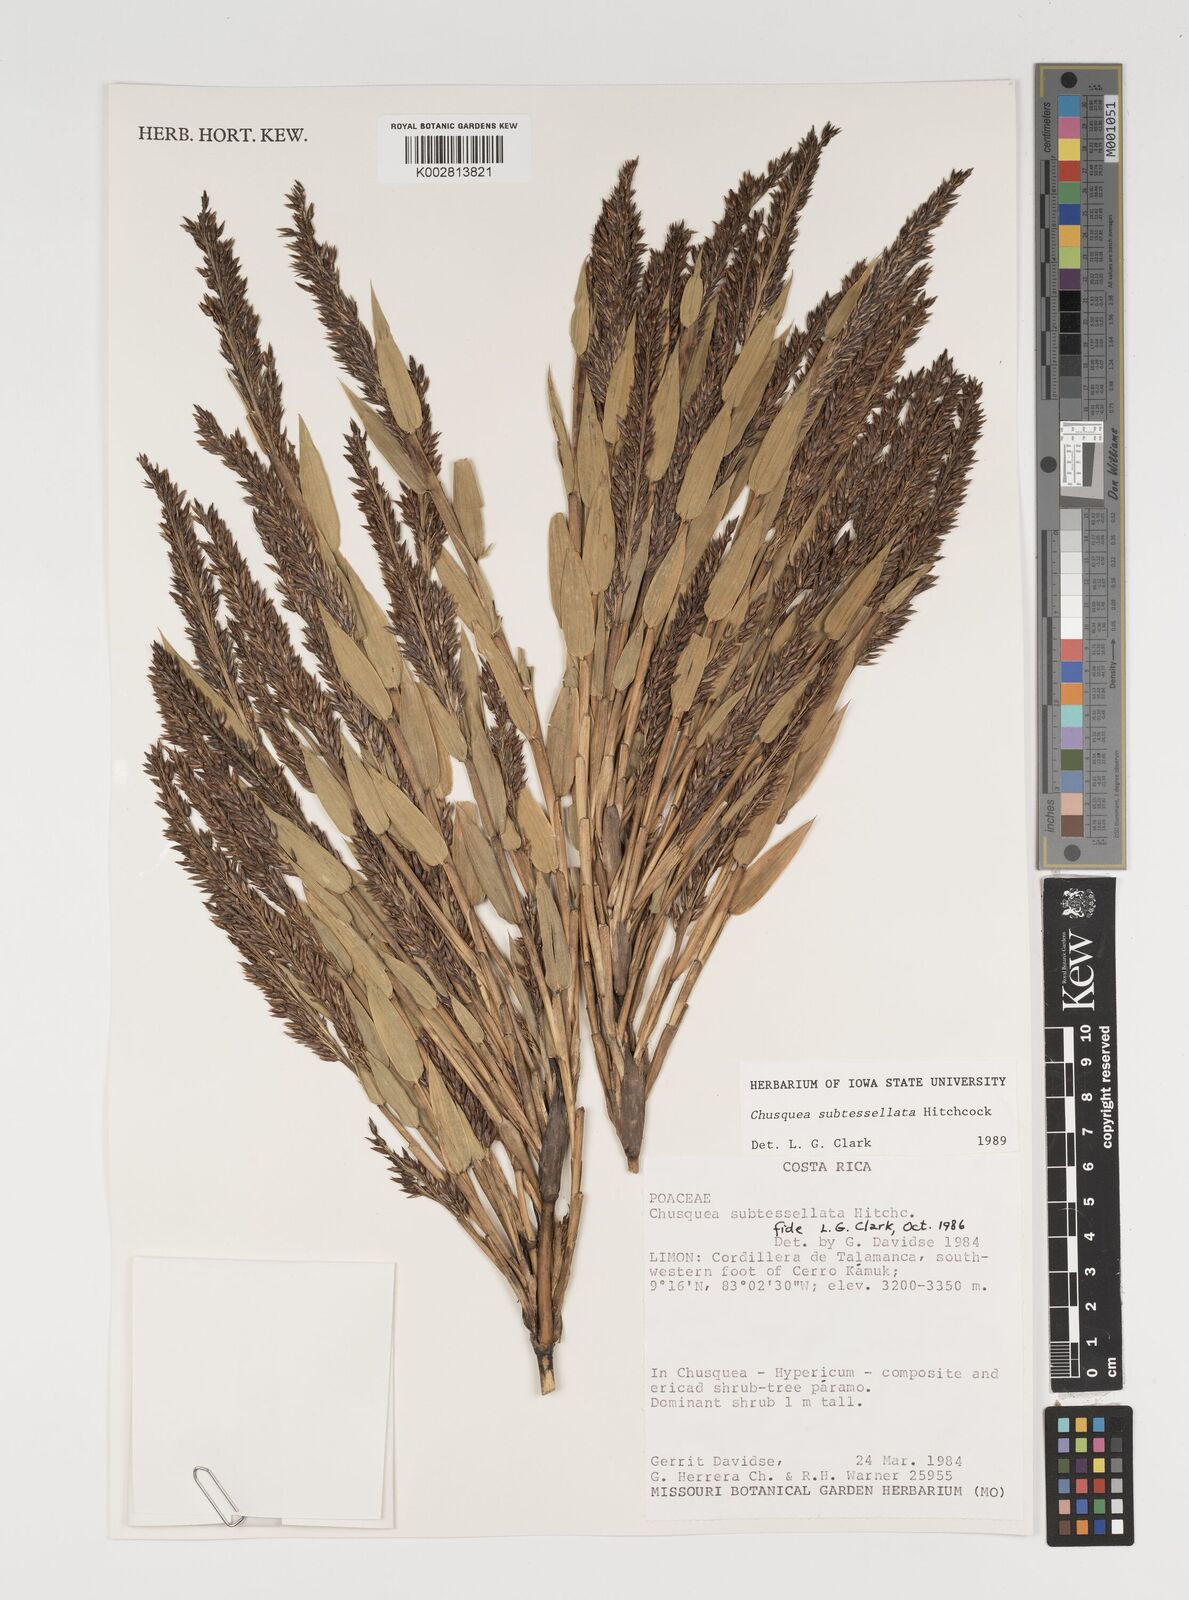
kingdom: Plantae
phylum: Tracheophyta
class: Liliopsida
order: Poales
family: Poaceae
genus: Chusquea
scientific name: Chusquea subtessellata
